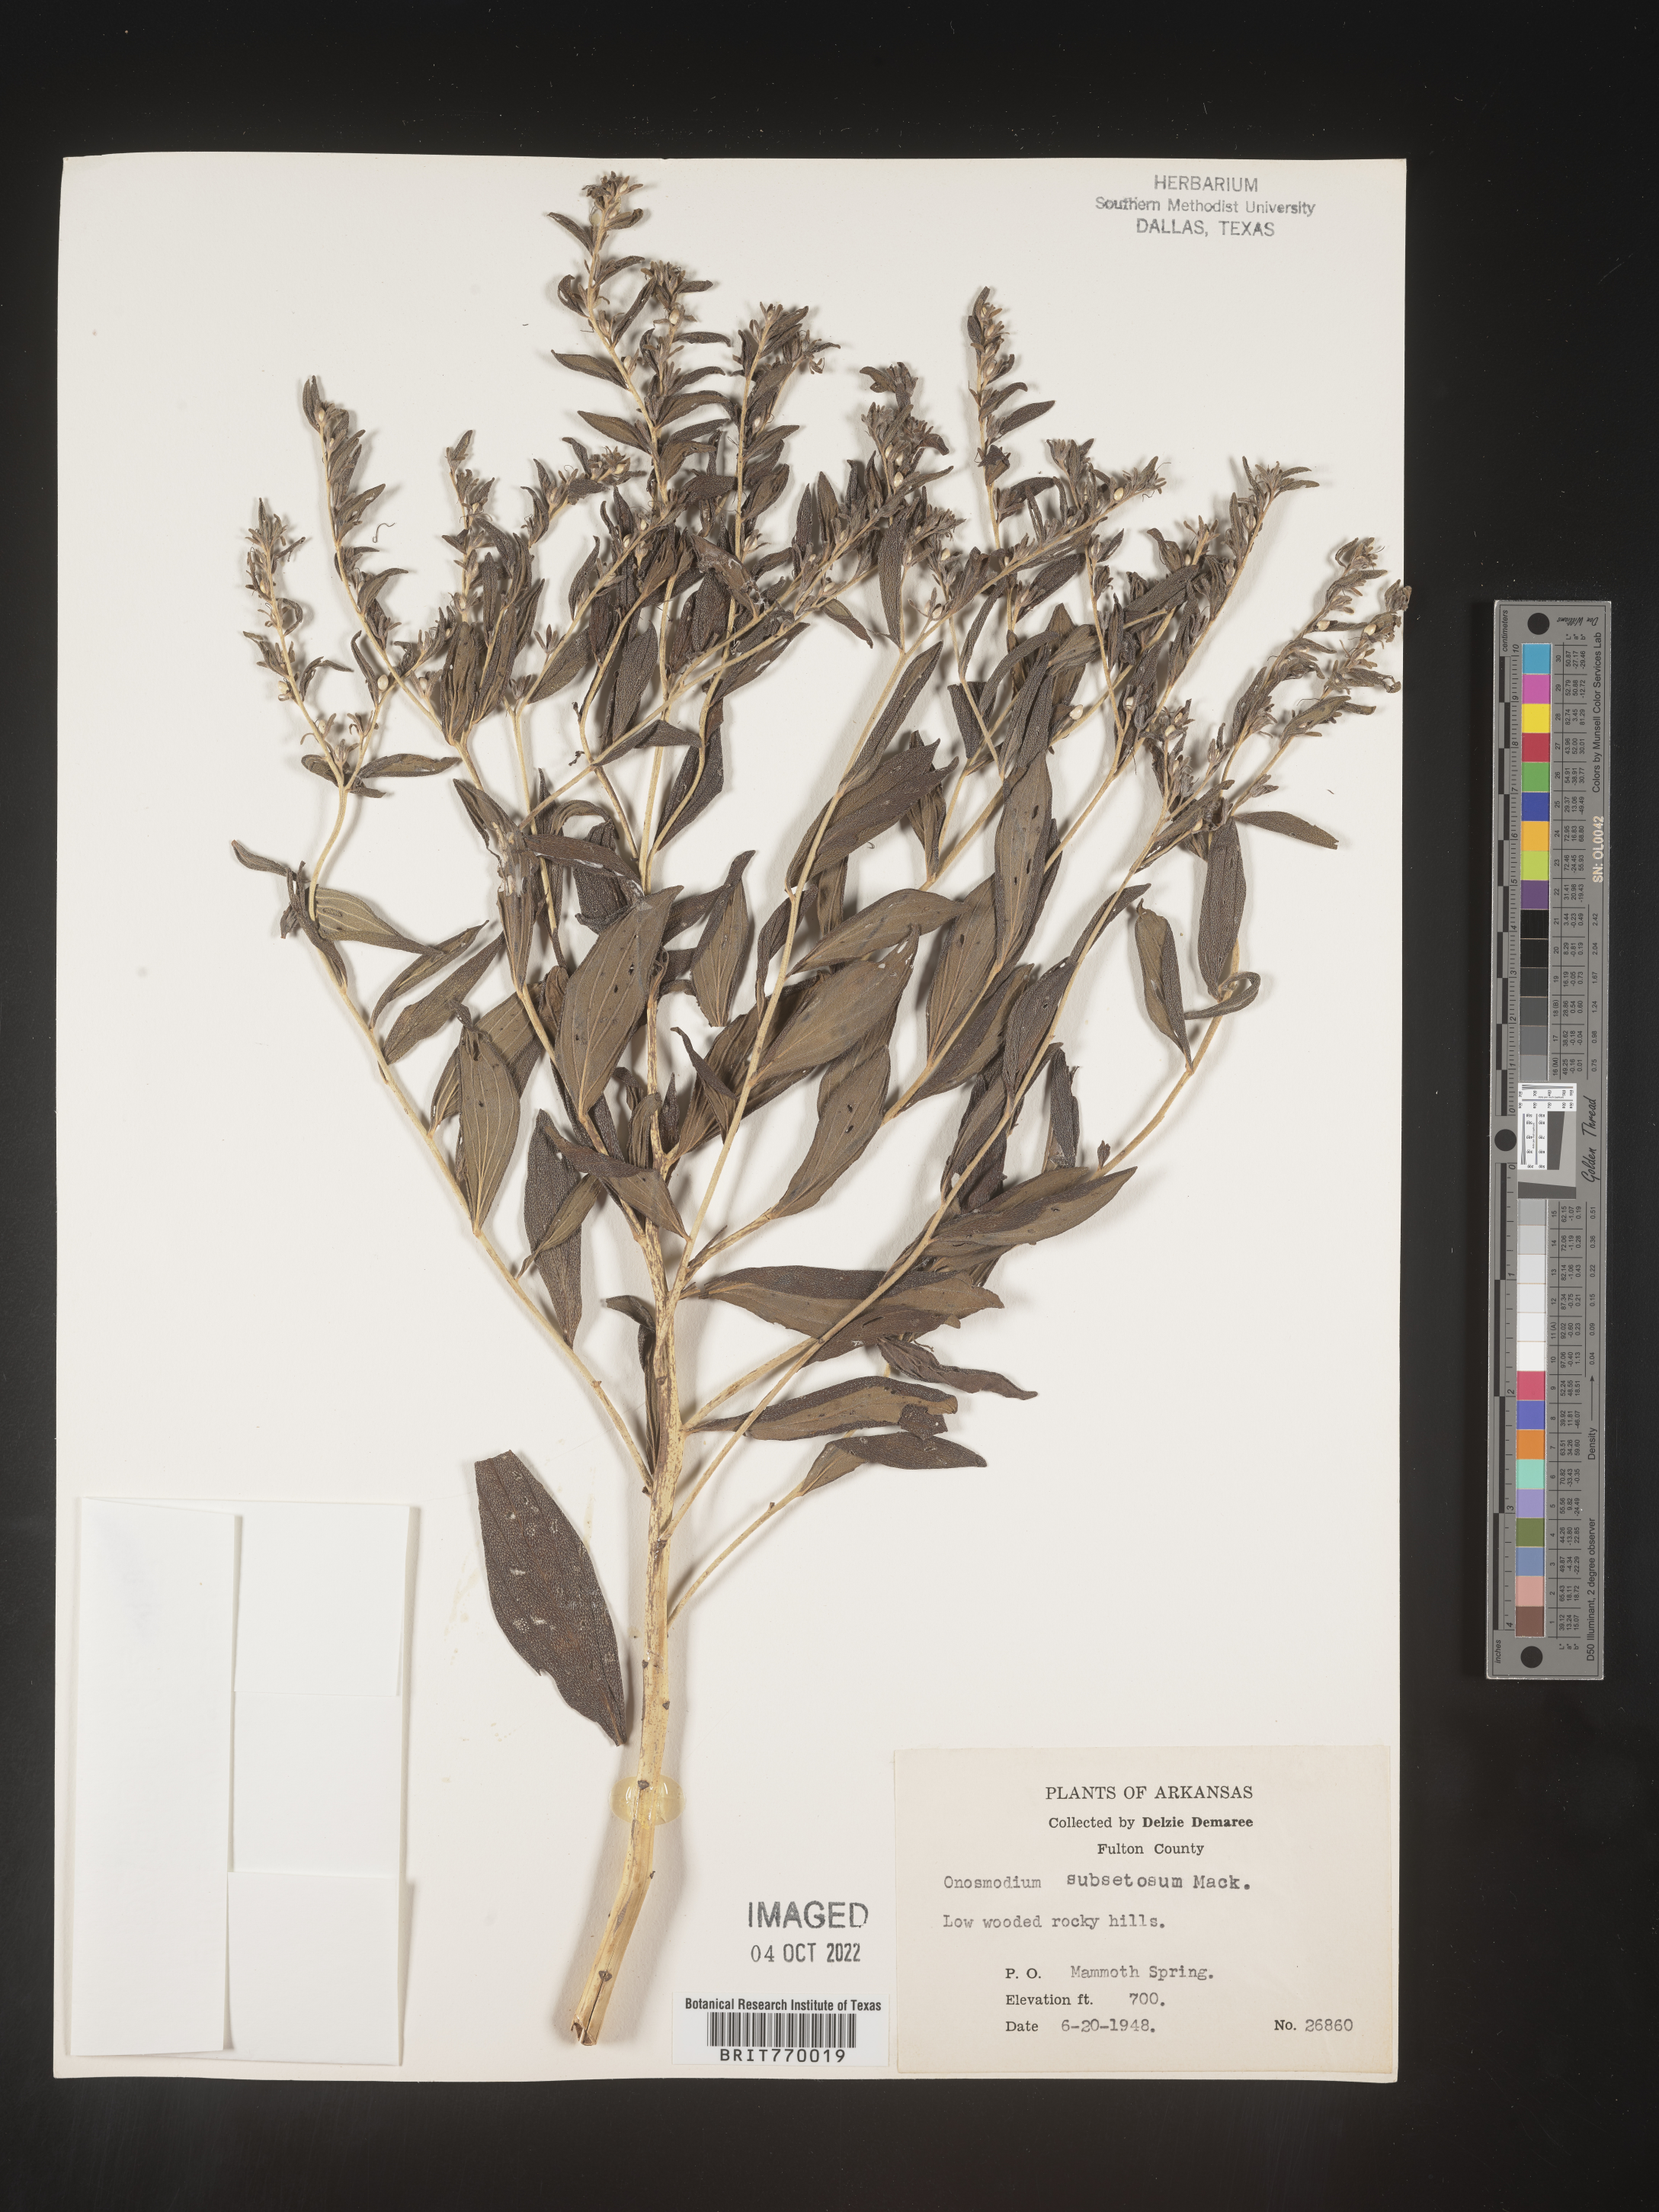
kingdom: Plantae
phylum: Tracheophyta
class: Magnoliopsida
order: Boraginales
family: Boraginaceae
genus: Lithospermum
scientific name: Lithospermum subsetosum
